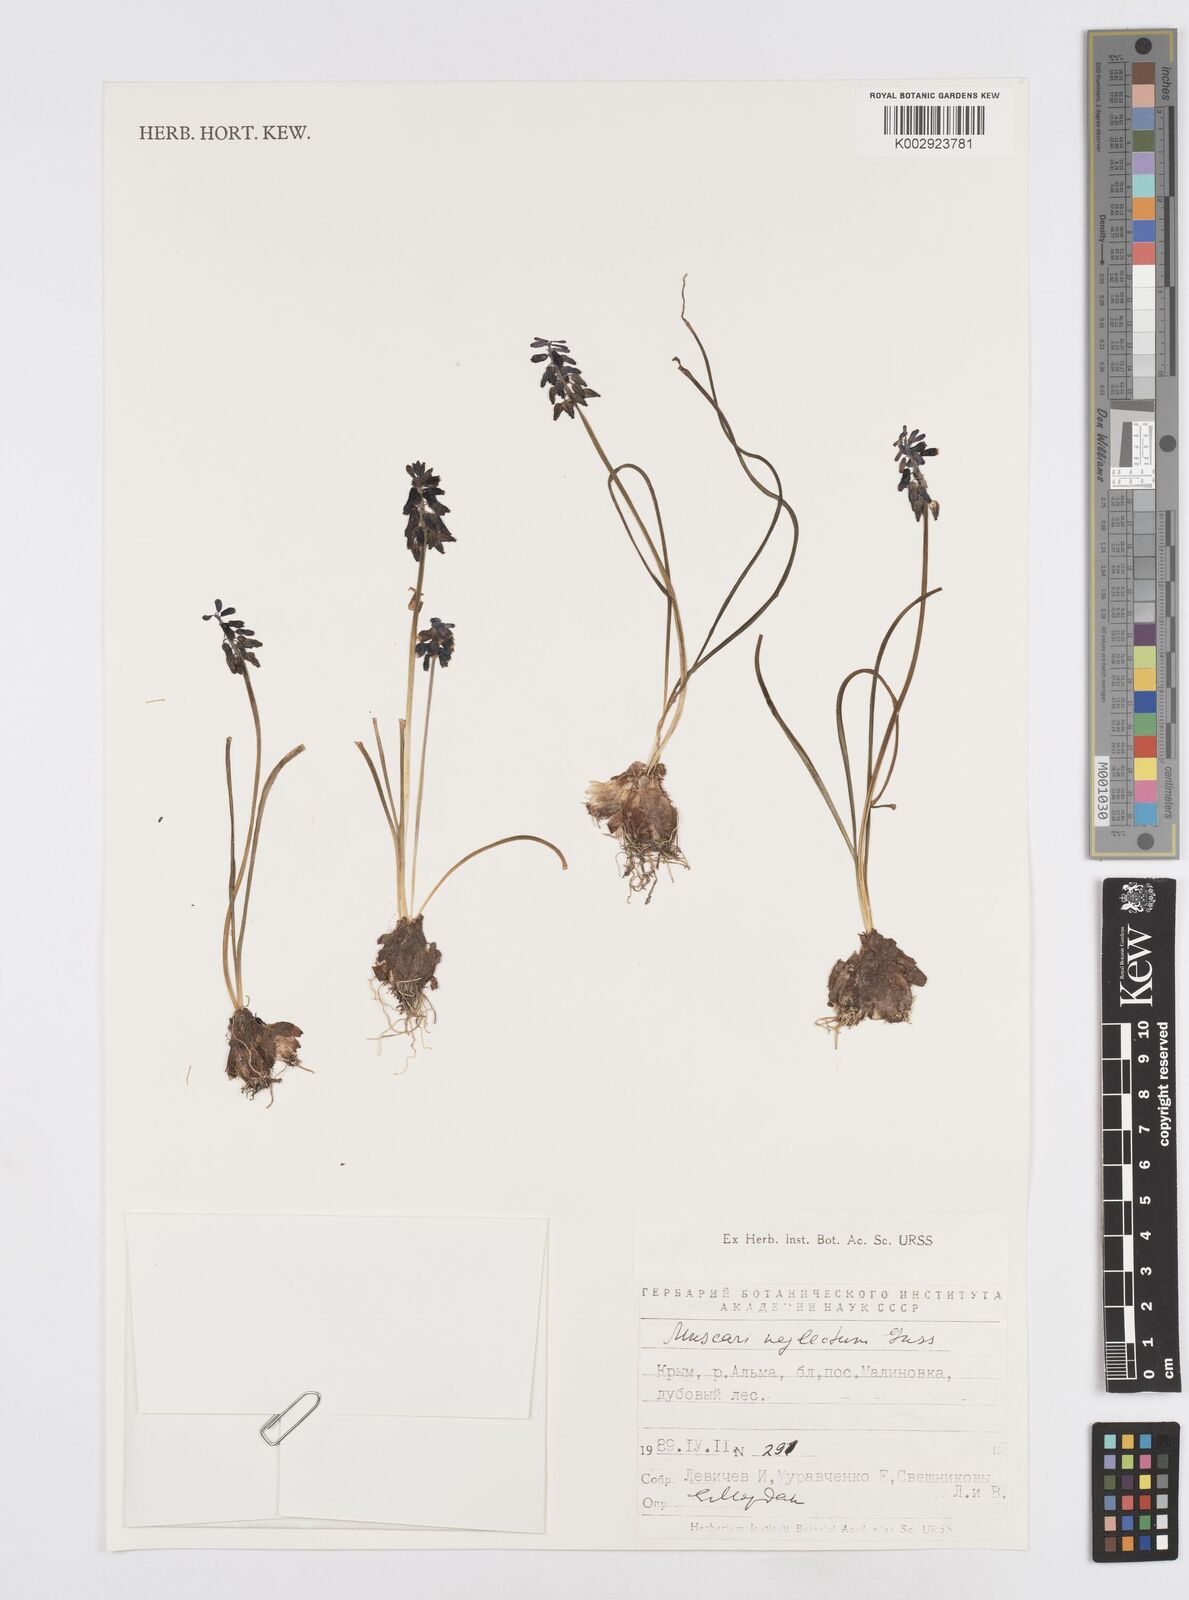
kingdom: Plantae
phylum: Tracheophyta
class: Liliopsida
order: Asparagales
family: Asparagaceae
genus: Muscari
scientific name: Muscari neglectum
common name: Grape-hyacinth
